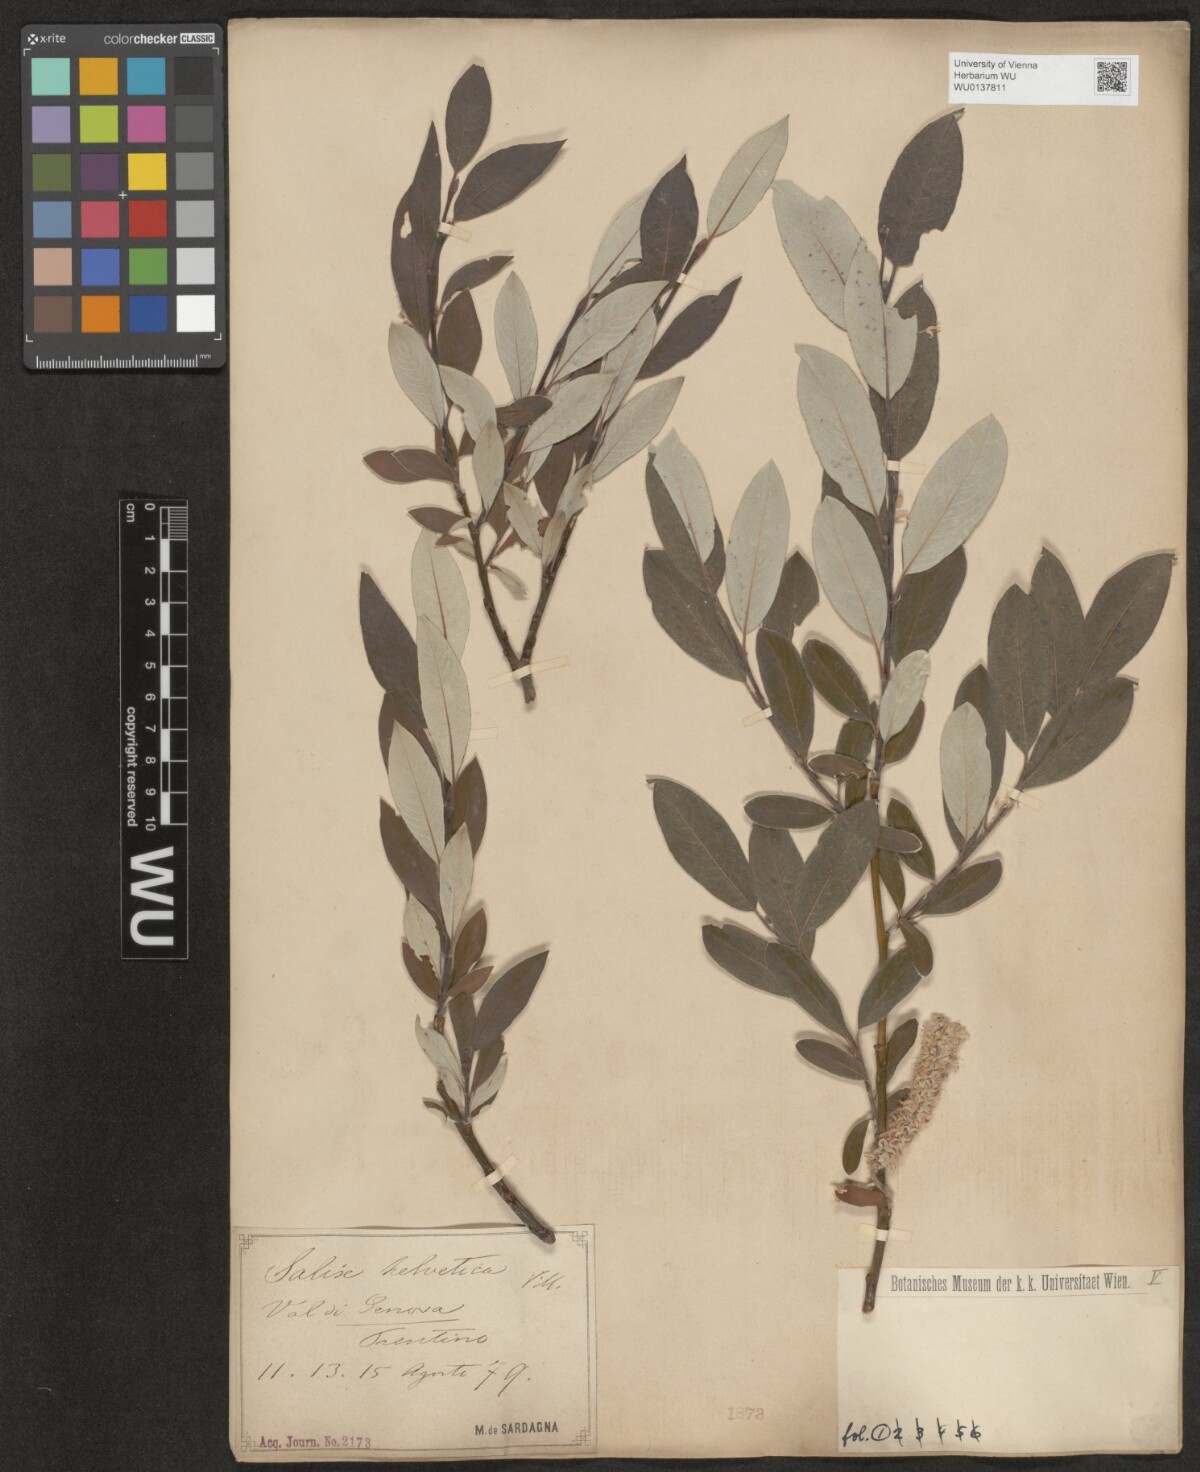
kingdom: Plantae
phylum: Tracheophyta
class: Magnoliopsida
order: Malpighiales
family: Salicaceae
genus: Salix
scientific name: Salix helvetica
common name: Swiss willow
